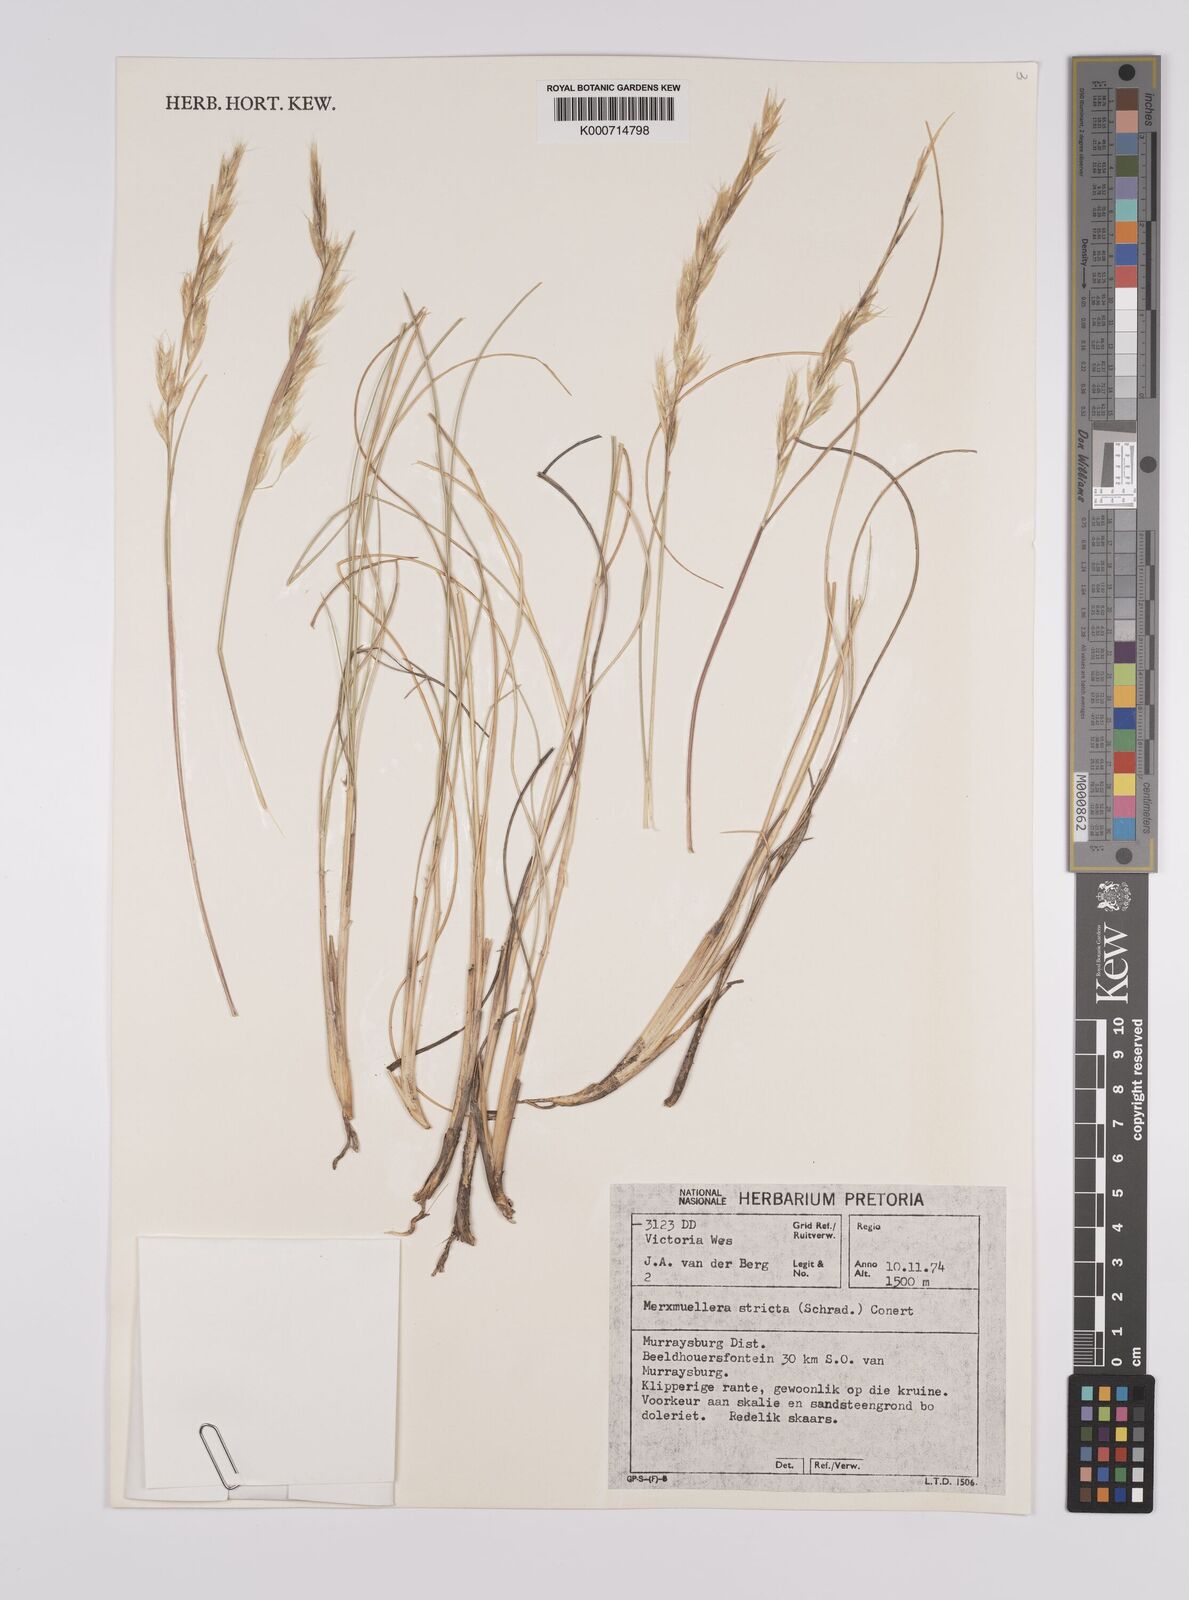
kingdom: Plantae
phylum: Tracheophyta
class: Liliopsida
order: Poales
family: Poaceae
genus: Rytidosperma
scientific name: Rytidosperma
